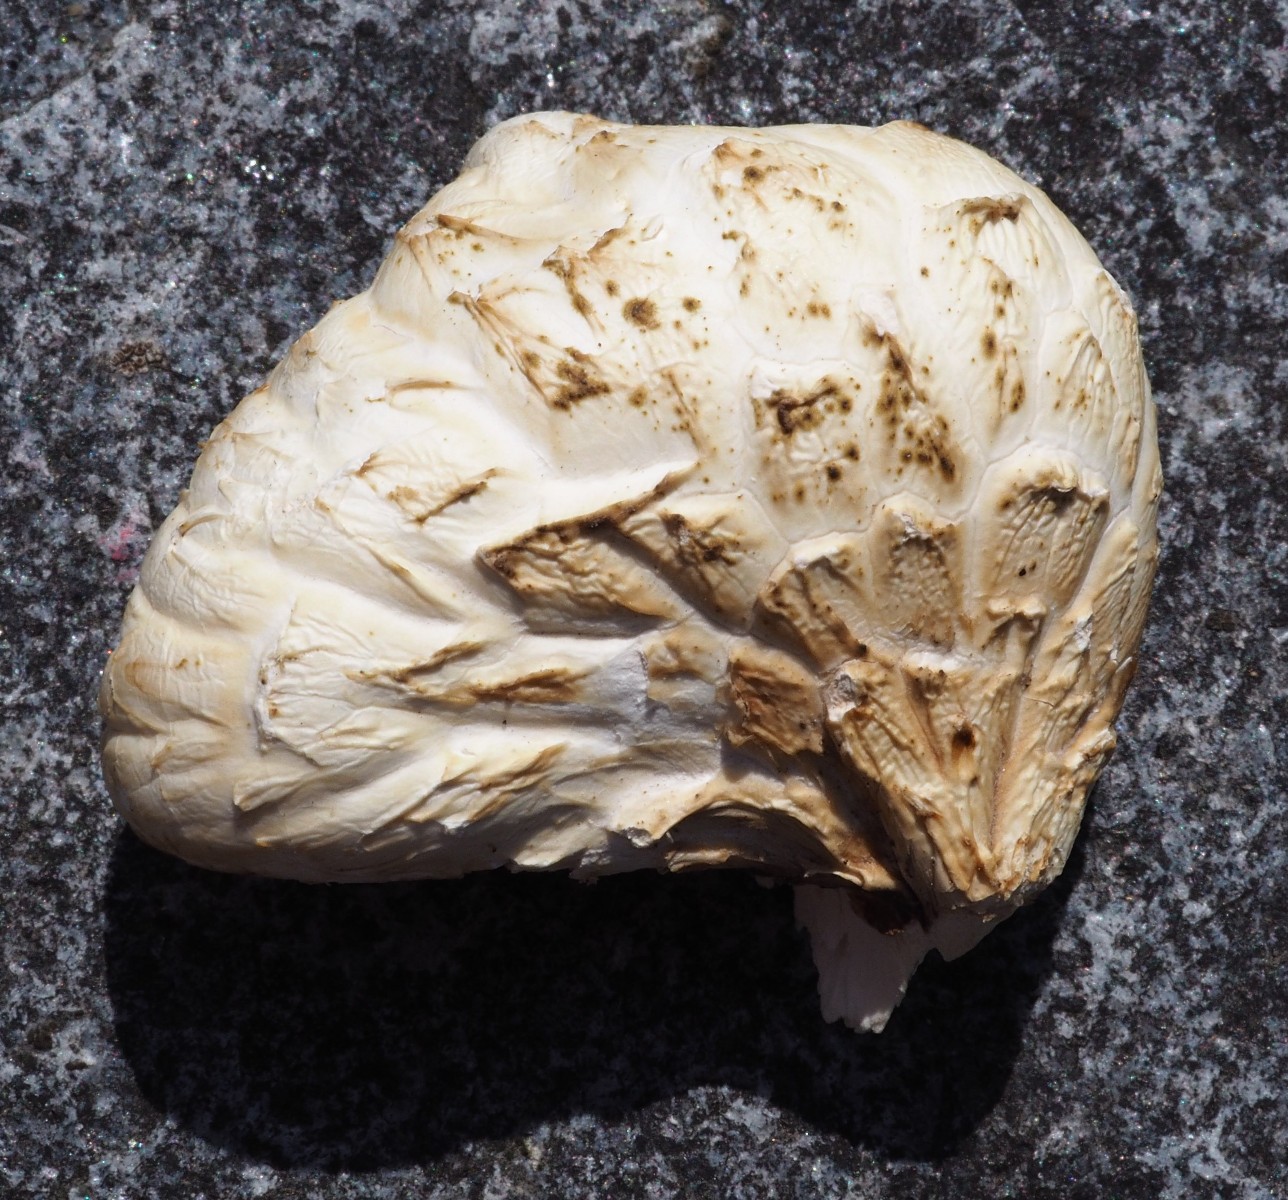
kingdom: Fungi
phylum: Basidiomycota
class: Agaricomycetes
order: Gloeophyllales
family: Gloeophyllaceae
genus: Neolentinus
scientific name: Neolentinus lepideus
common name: skællet sejhat
